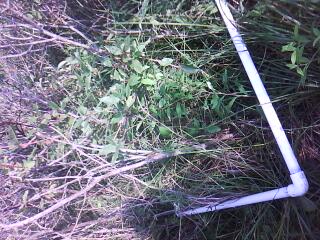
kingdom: Plantae
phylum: Tracheophyta
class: Magnoliopsida
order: Asterales
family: Asteraceae
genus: Doellingeria
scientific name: Doellingeria umbellata
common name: Flat-top white aster
